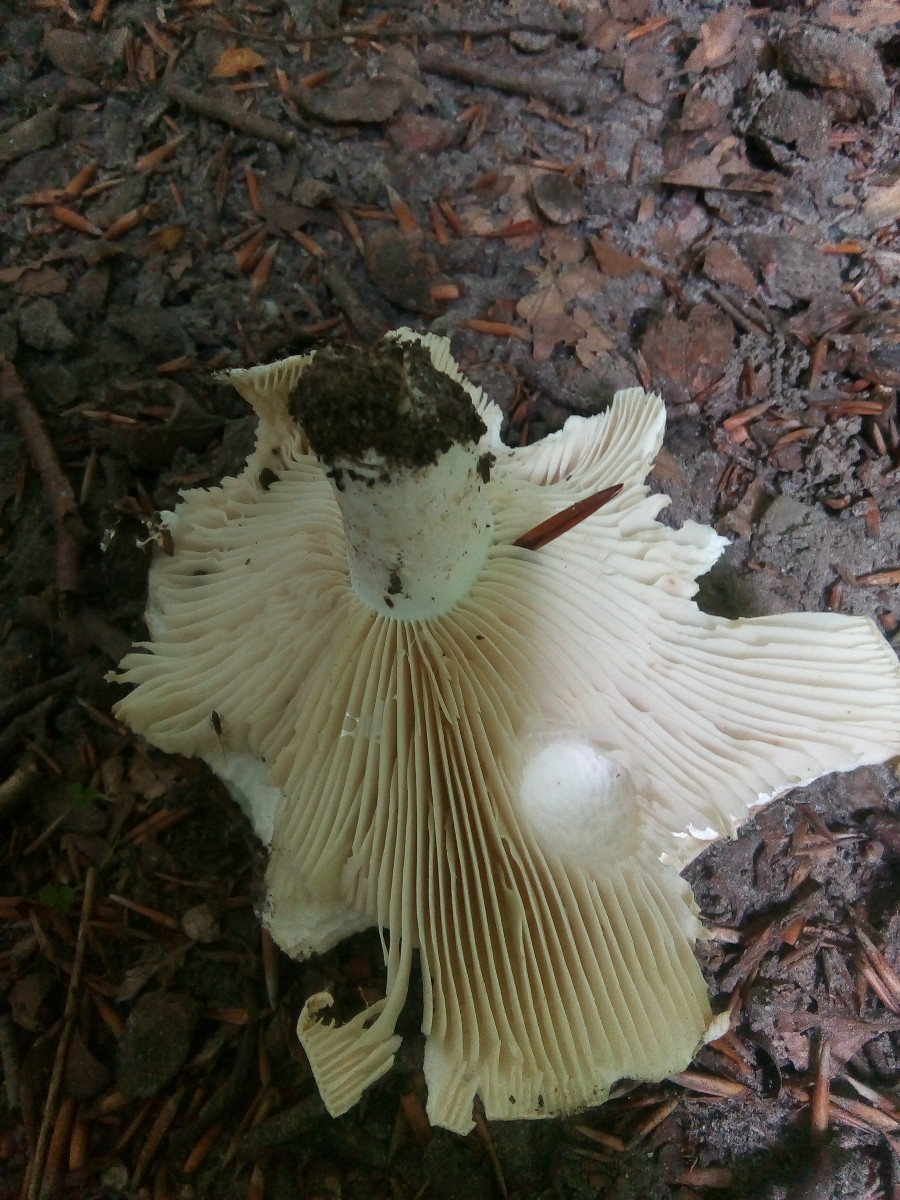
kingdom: Fungi
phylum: Basidiomycota
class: Agaricomycetes
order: Russulales
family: Russulaceae
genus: Russula
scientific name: Russula delica
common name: almindelig tragt-skørhat
